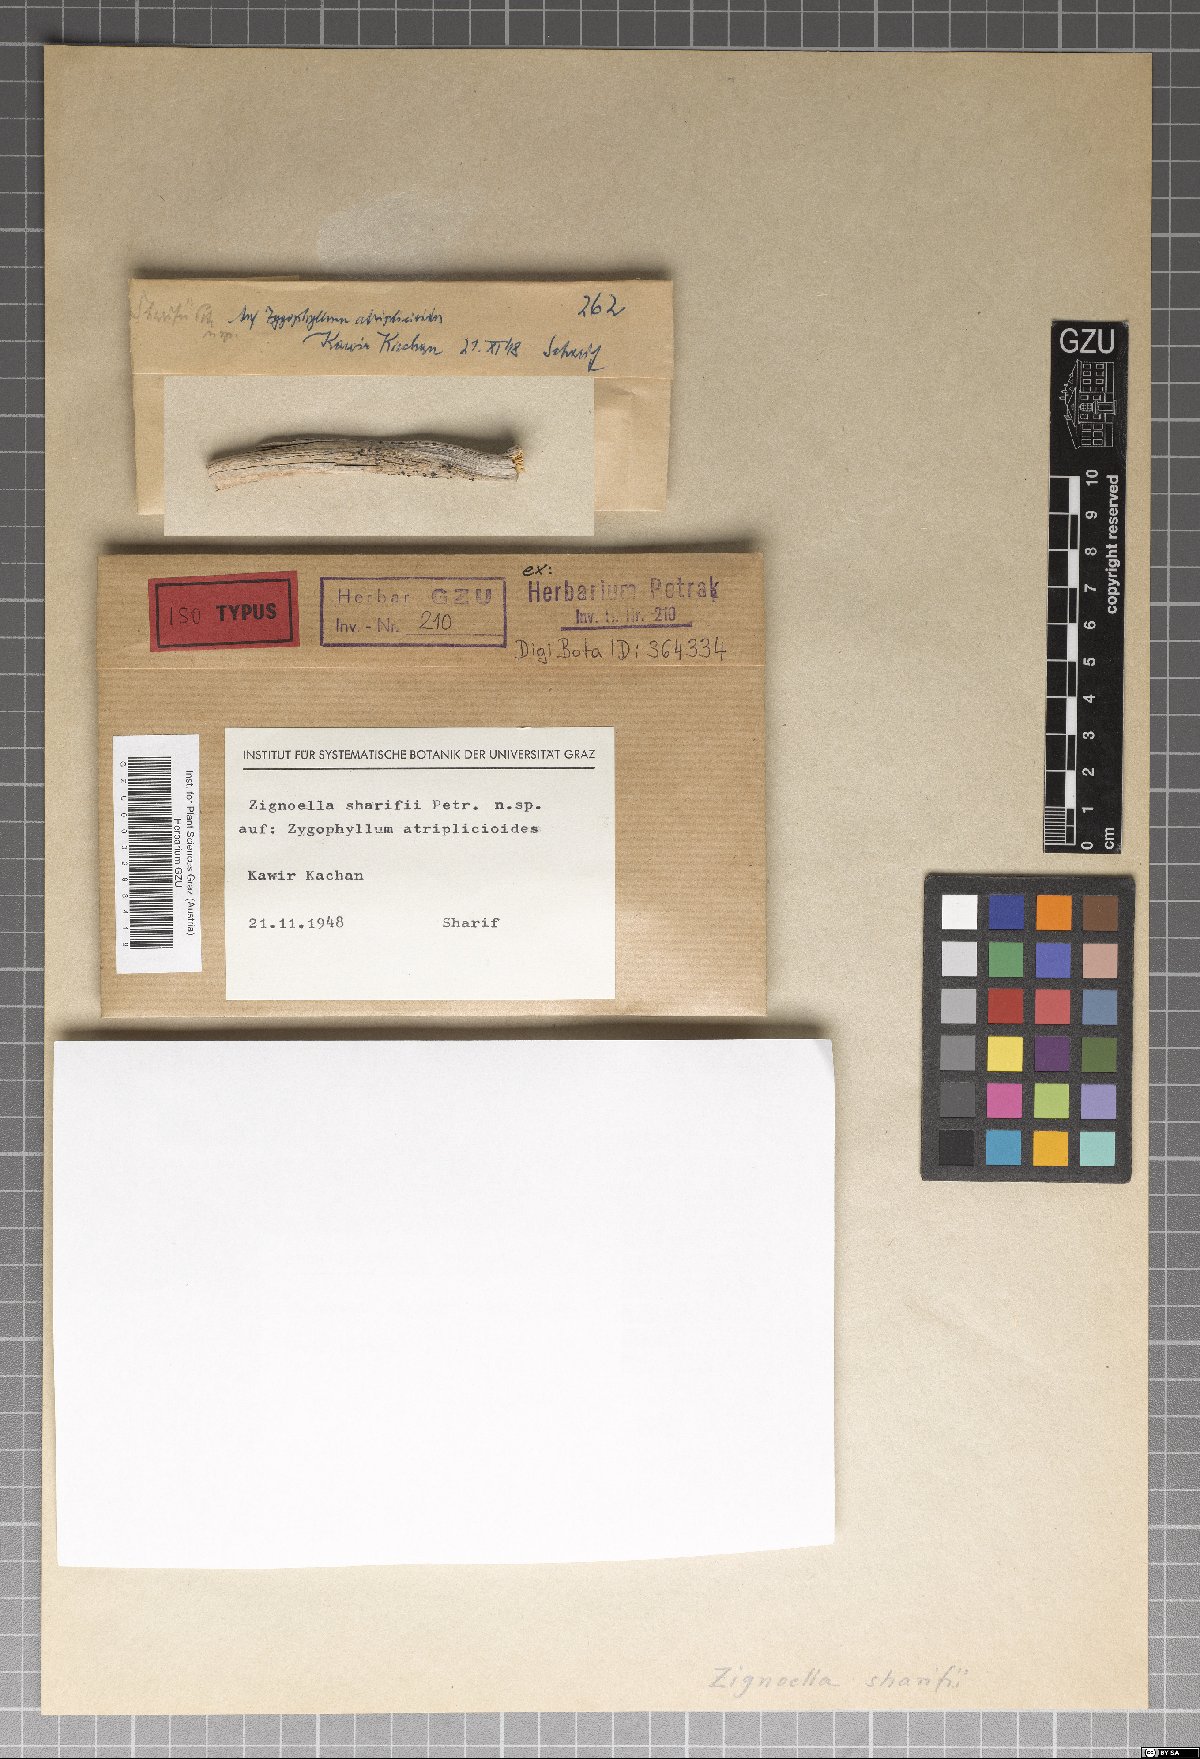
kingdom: Fungi
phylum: Ascomycota
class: Sordariomycetes
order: Chaetosphaeriales
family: Chaetosphaeriaceae
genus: Zignoella
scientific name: Zignoella sharifii
